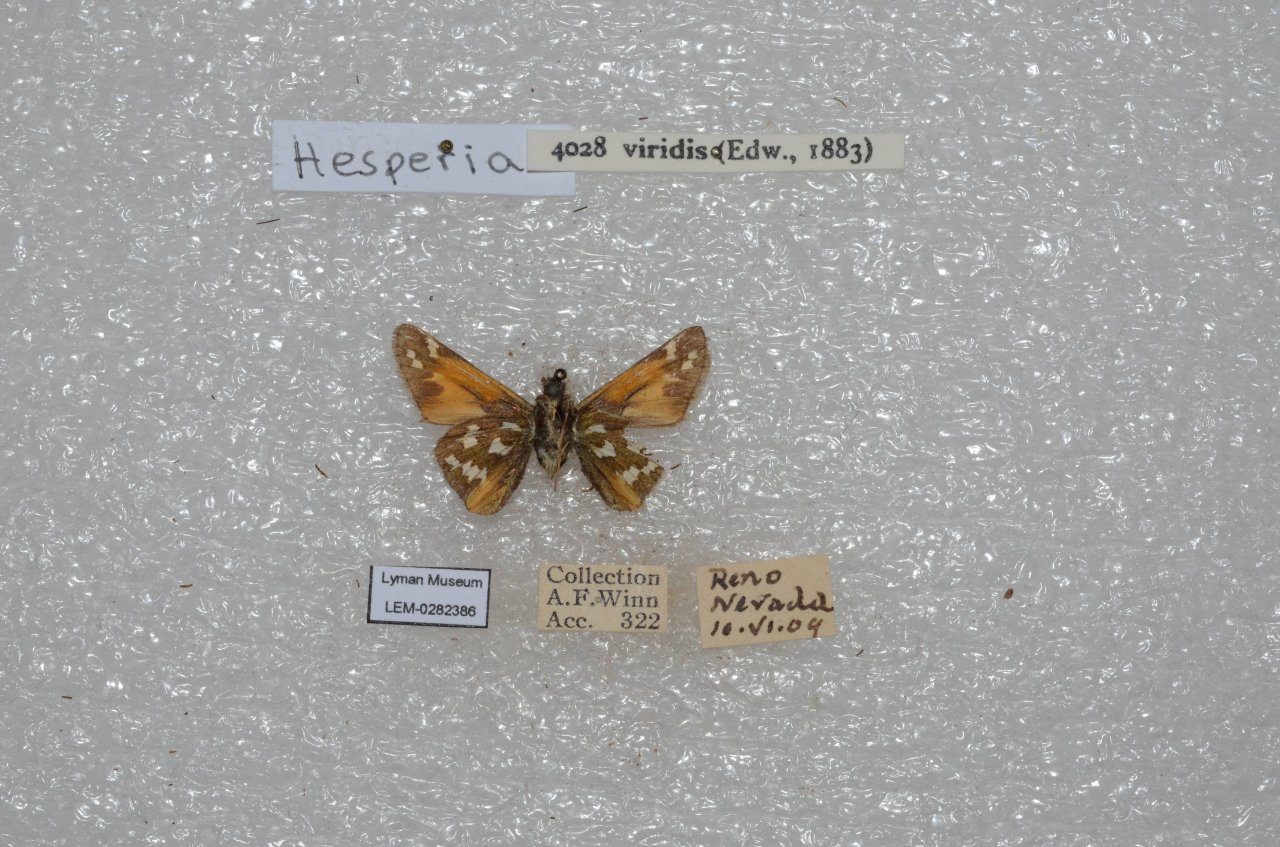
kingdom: Animalia
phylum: Arthropoda
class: Insecta
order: Lepidoptera
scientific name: Lepidoptera
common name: Butterflies
